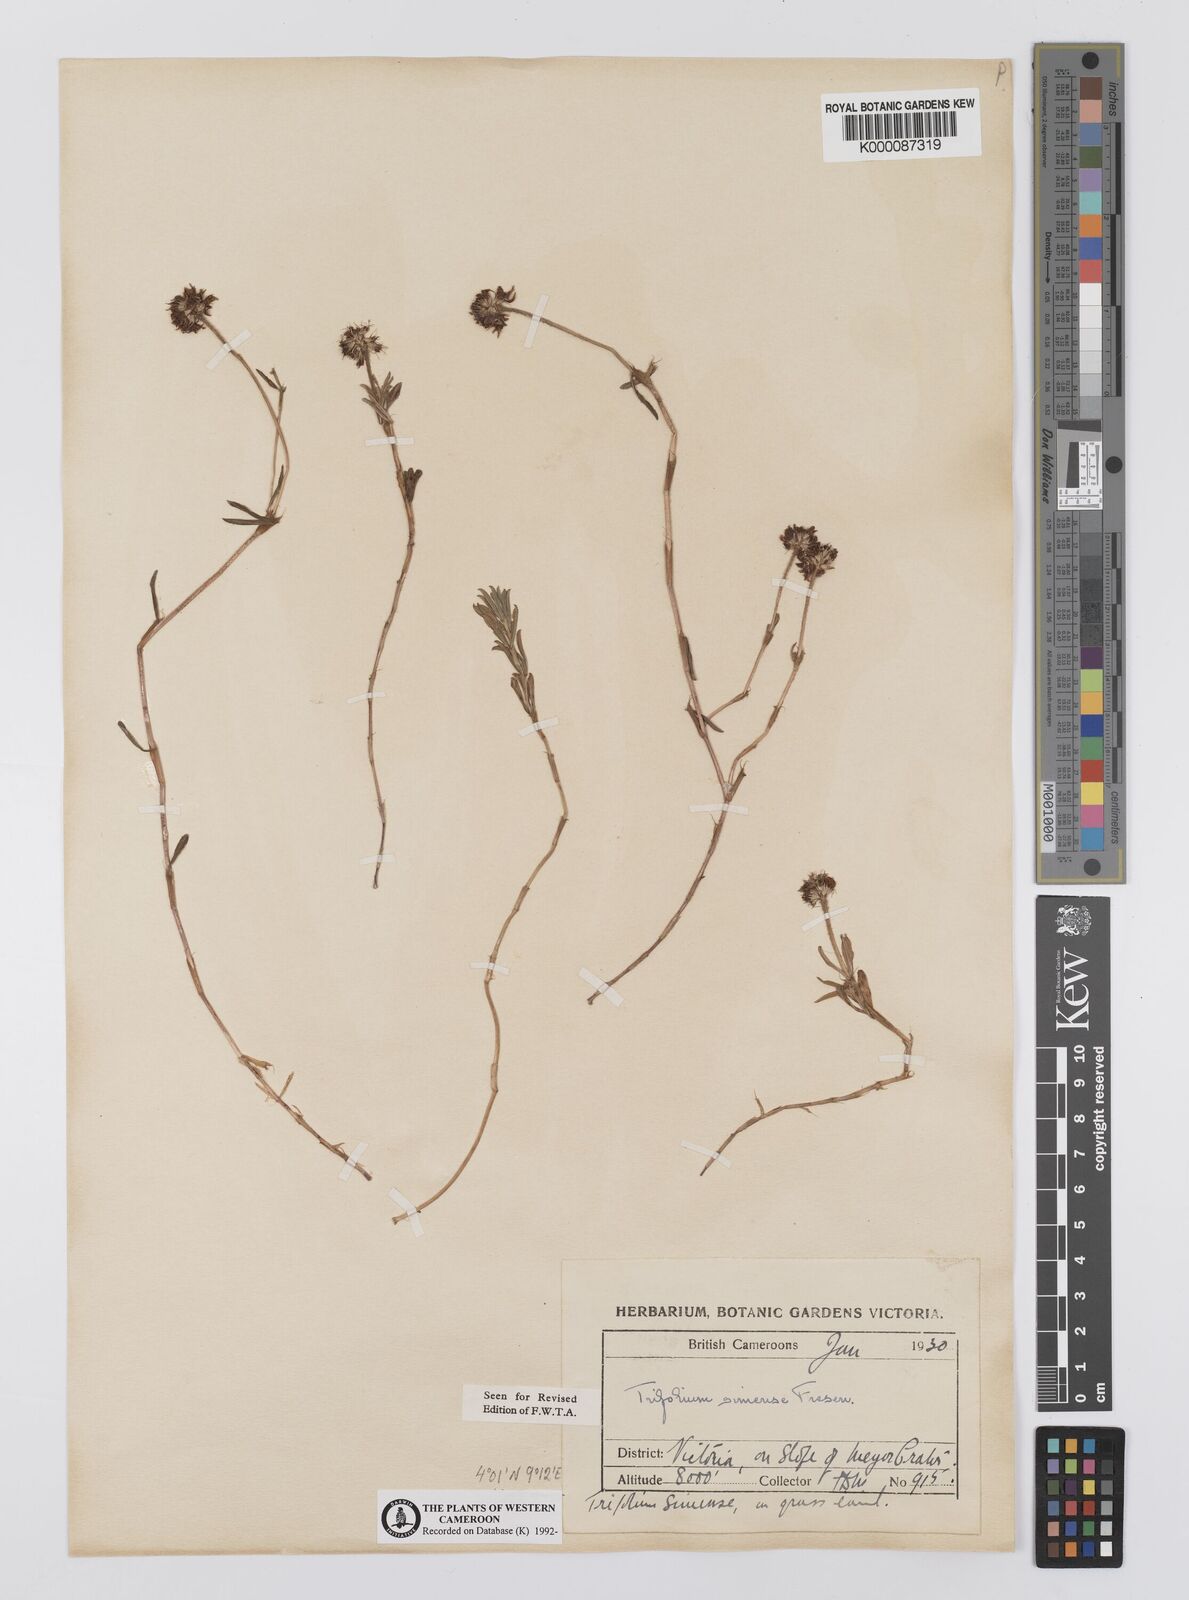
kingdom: Plantae
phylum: Tracheophyta
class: Magnoliopsida
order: Fabales
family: Fabaceae
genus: Trifolium
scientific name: Trifolium simense
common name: Simen clover
